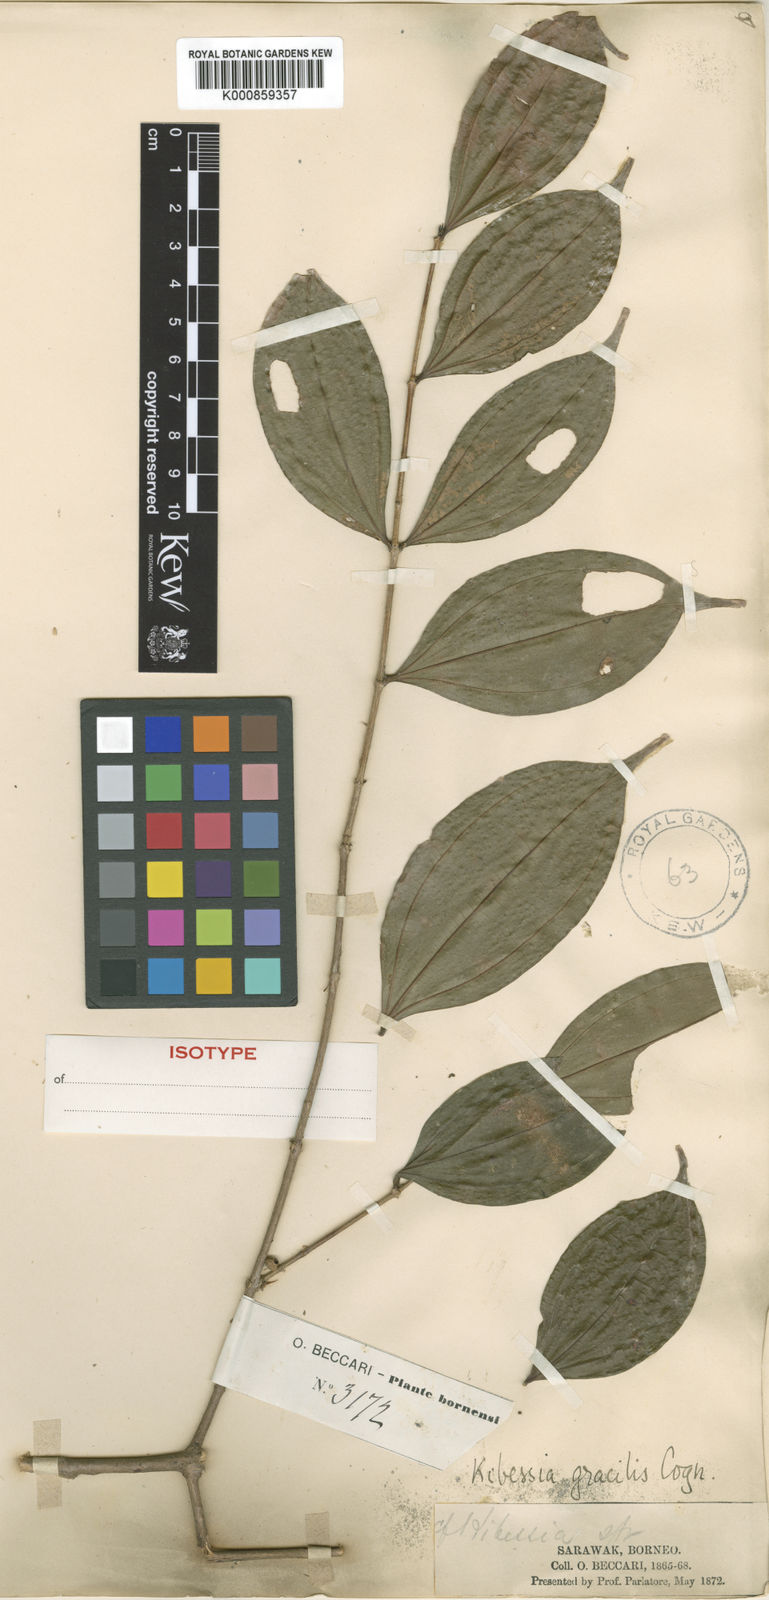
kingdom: Plantae
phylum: Tracheophyta
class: Magnoliopsida
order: Myrtales
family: Melastomataceae
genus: Pternandra
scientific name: Pternandra gracilis
